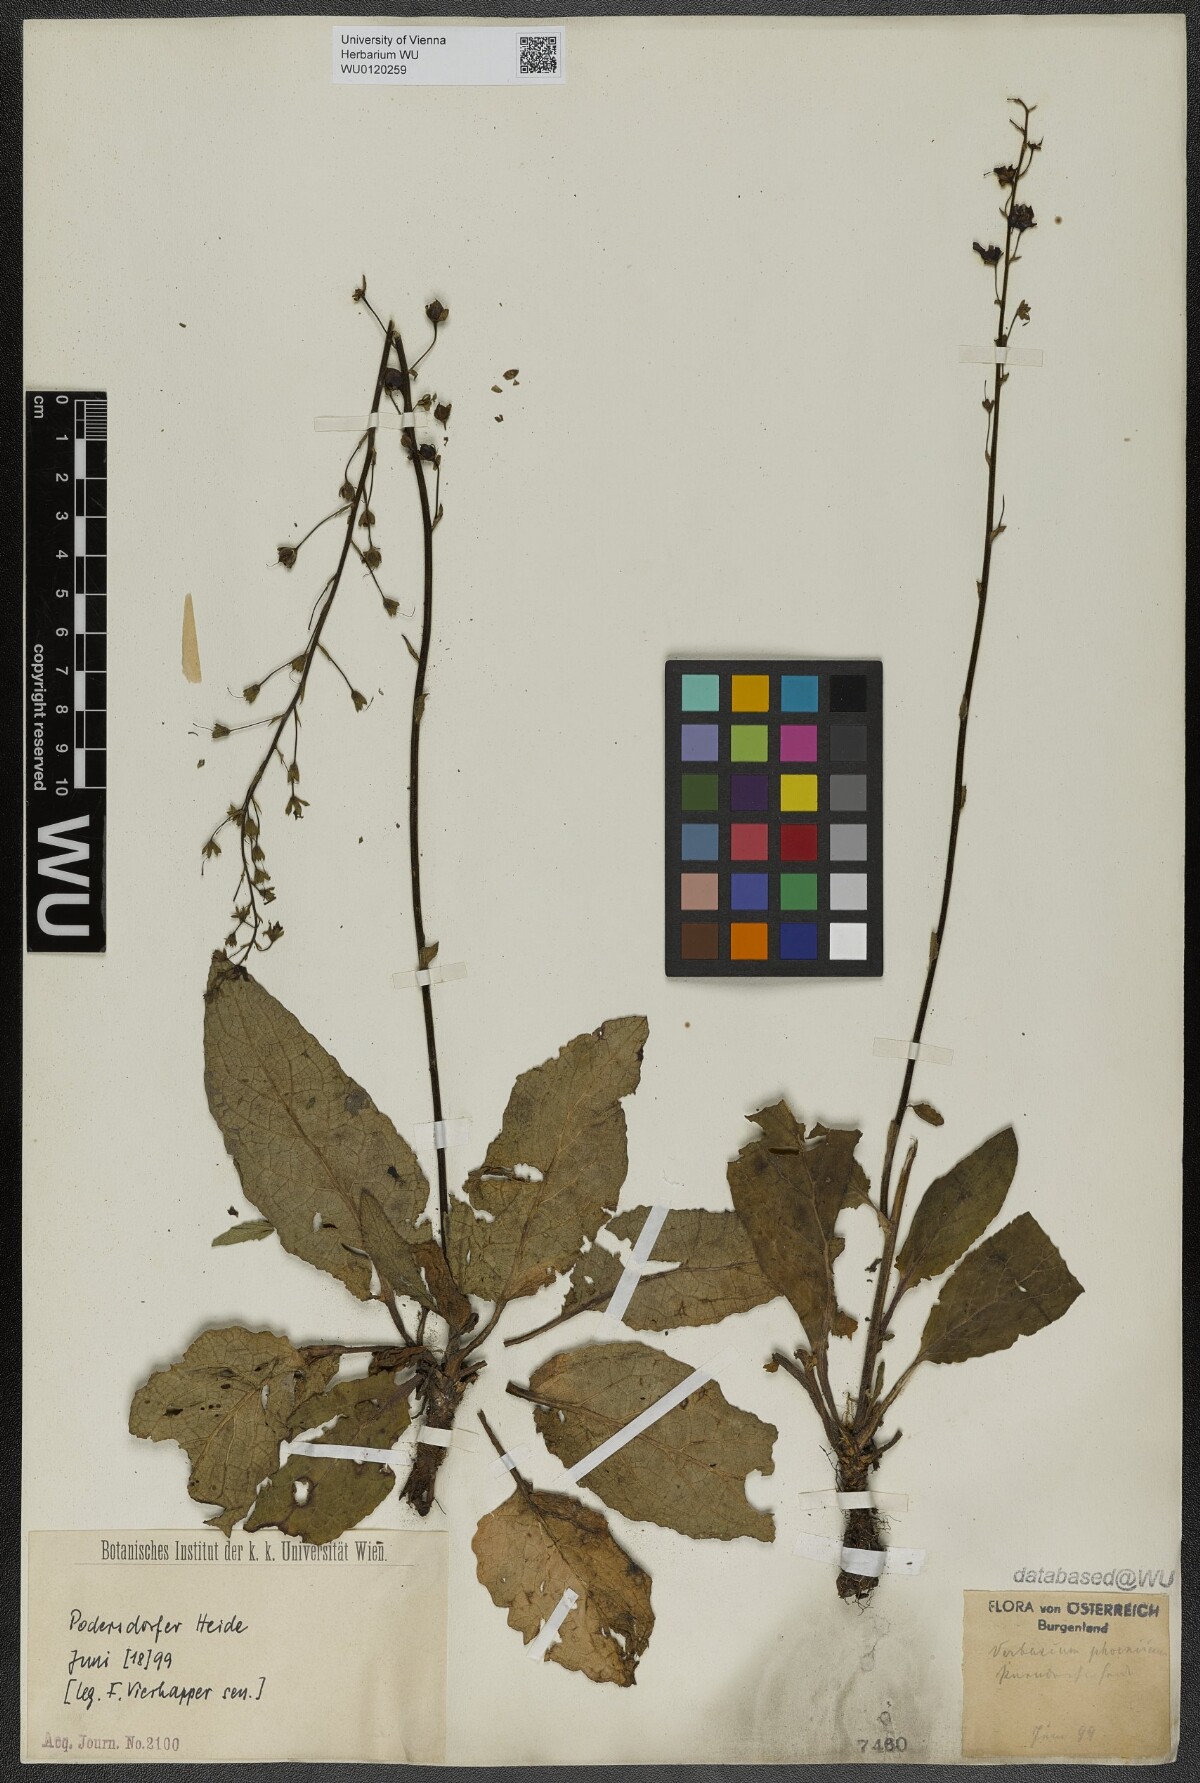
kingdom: Plantae
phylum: Tracheophyta
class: Magnoliopsida
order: Lamiales
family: Scrophulariaceae
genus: Verbascum
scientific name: Verbascum phoeniceum
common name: Purple mullein
